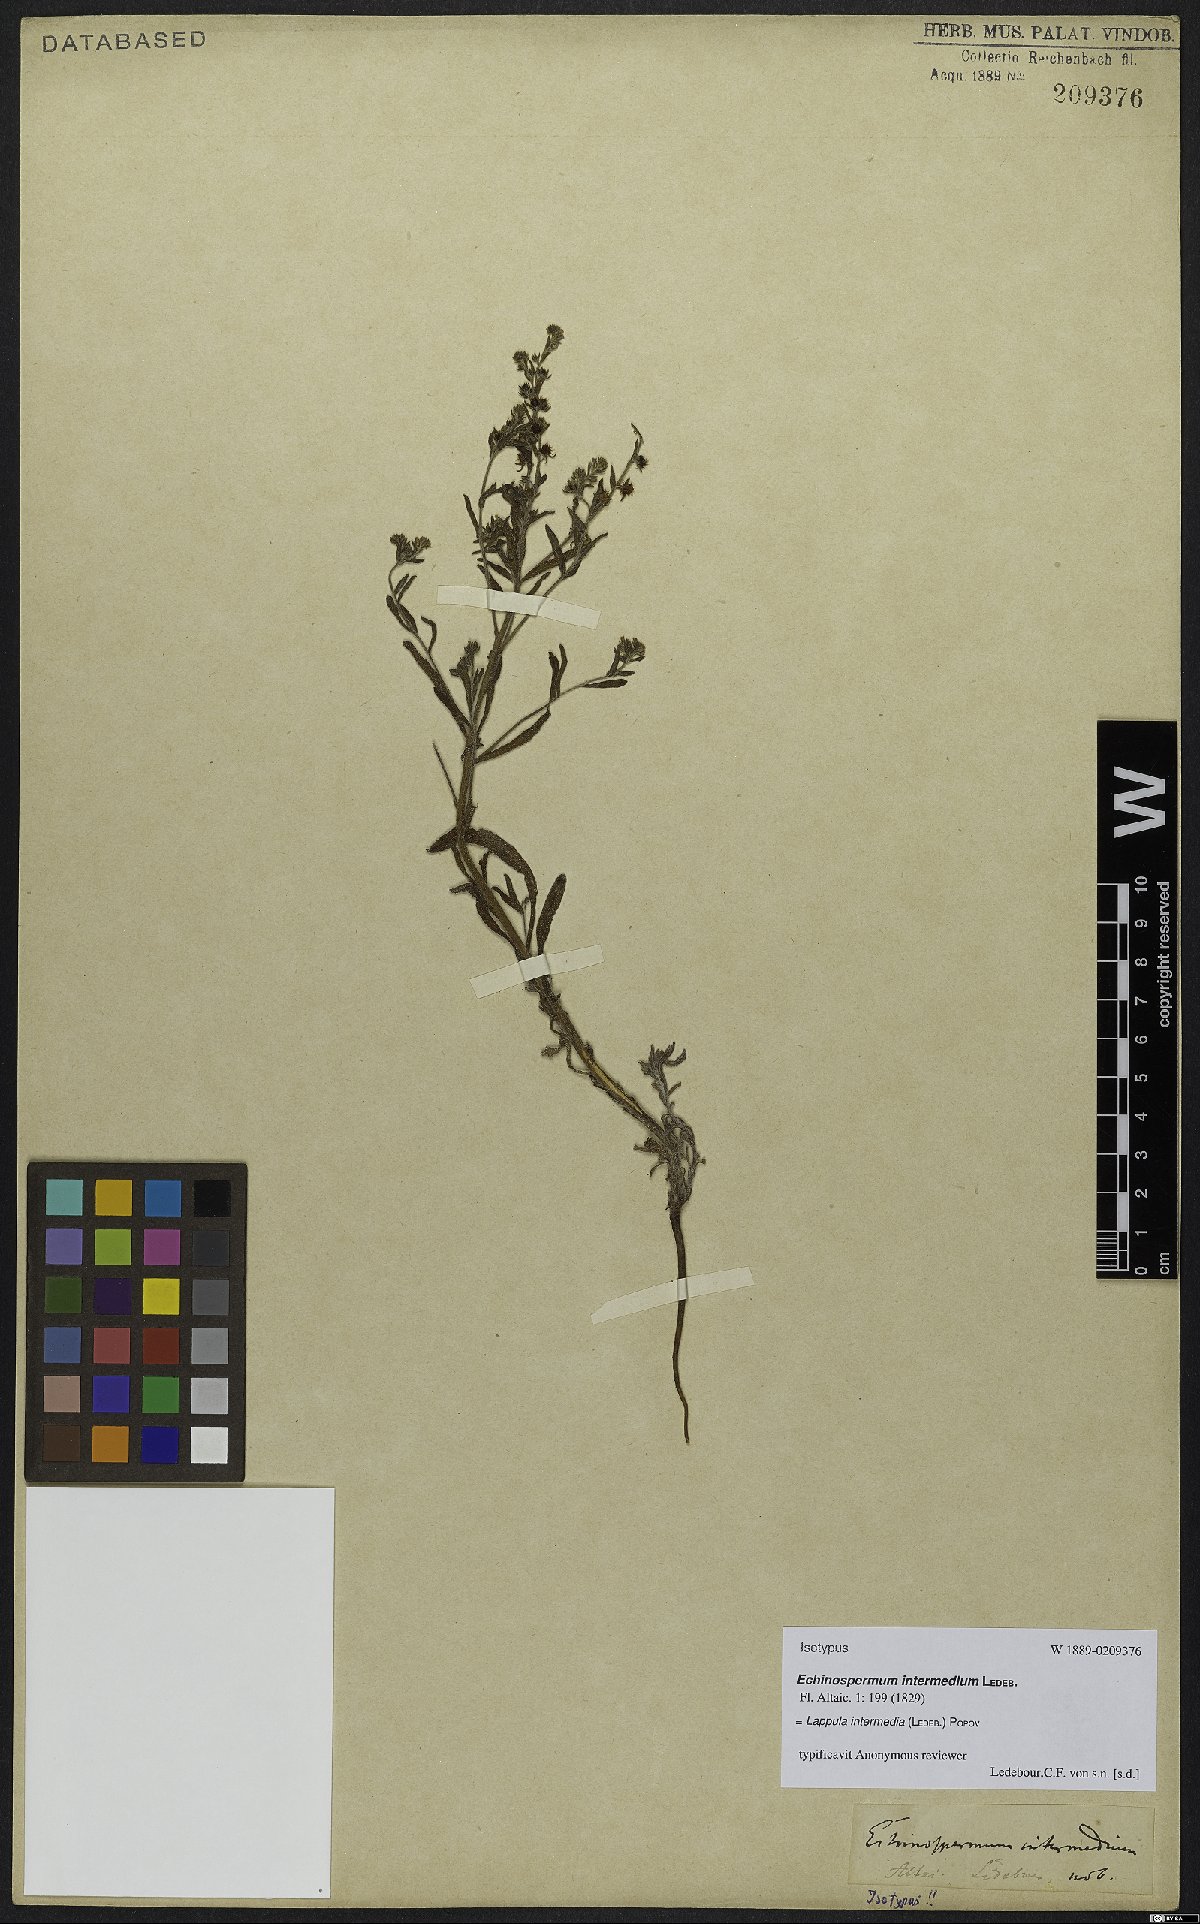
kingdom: Plantae
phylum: Tracheophyta
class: Magnoliopsida
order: Boraginales
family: Boraginaceae
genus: Lappula
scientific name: Lappula intermedia
